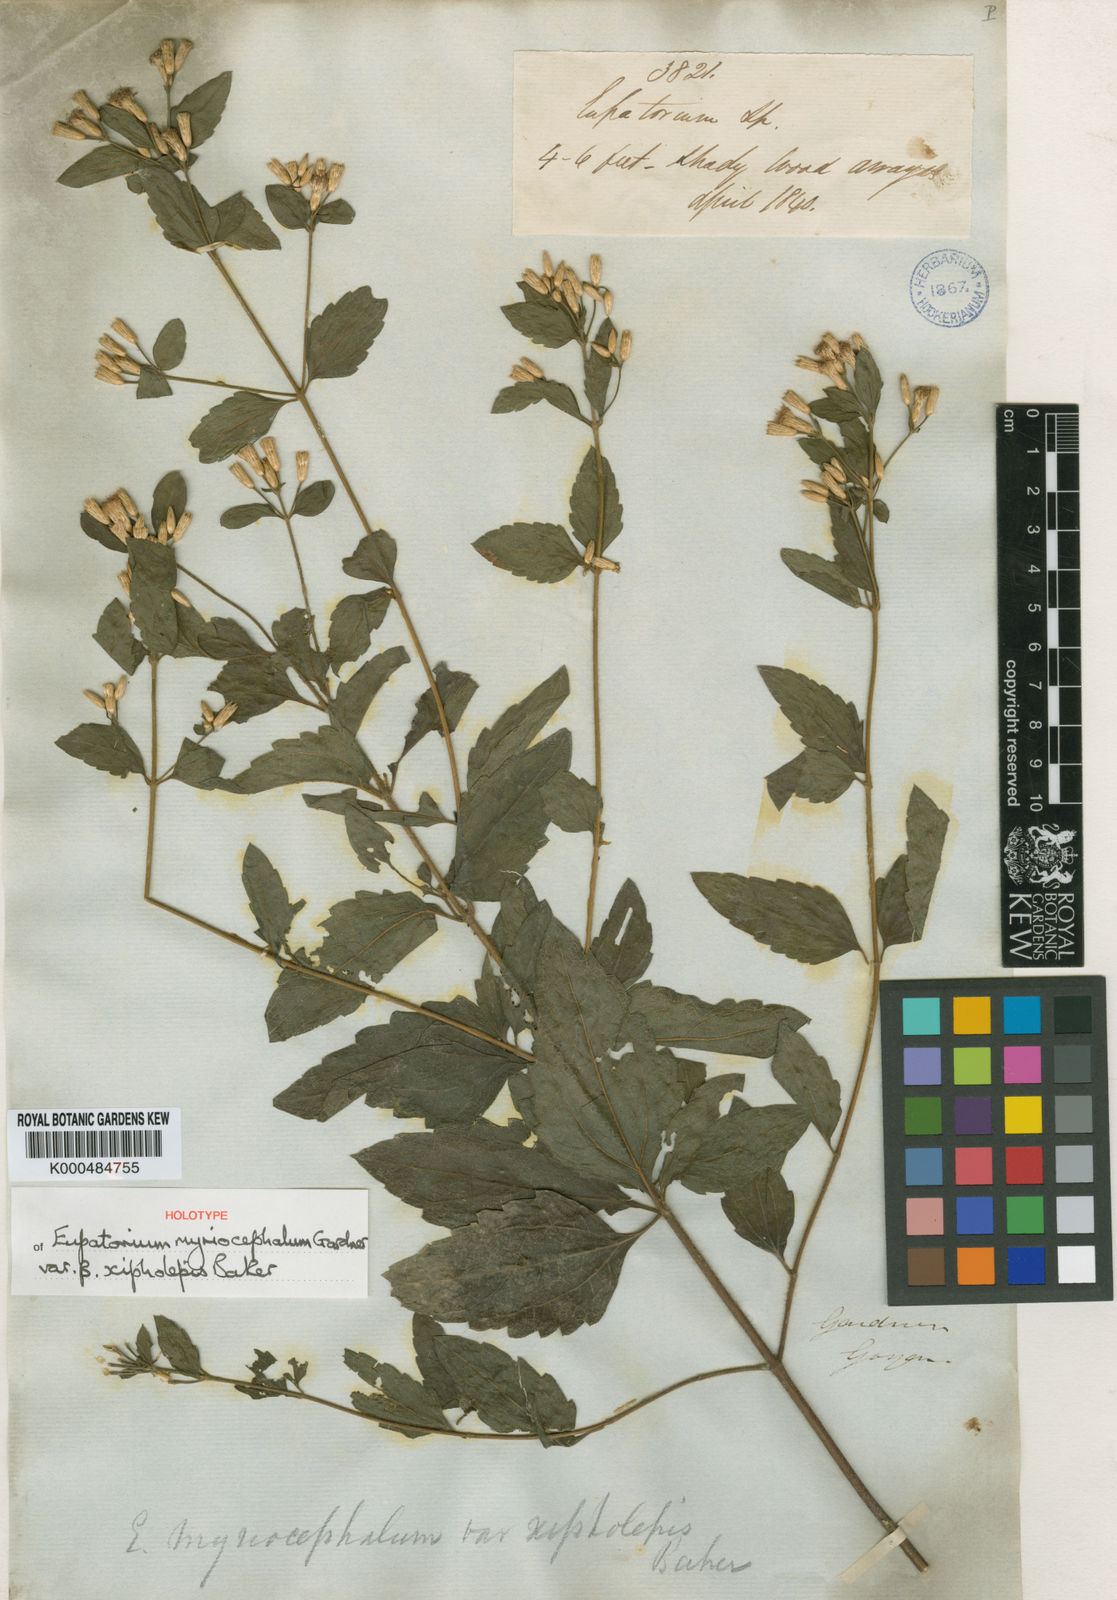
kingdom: Plantae
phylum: Tracheophyta
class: Magnoliopsida
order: Asterales
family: Asteraceae
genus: Chromolaena
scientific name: Chromolaena myriocephala
